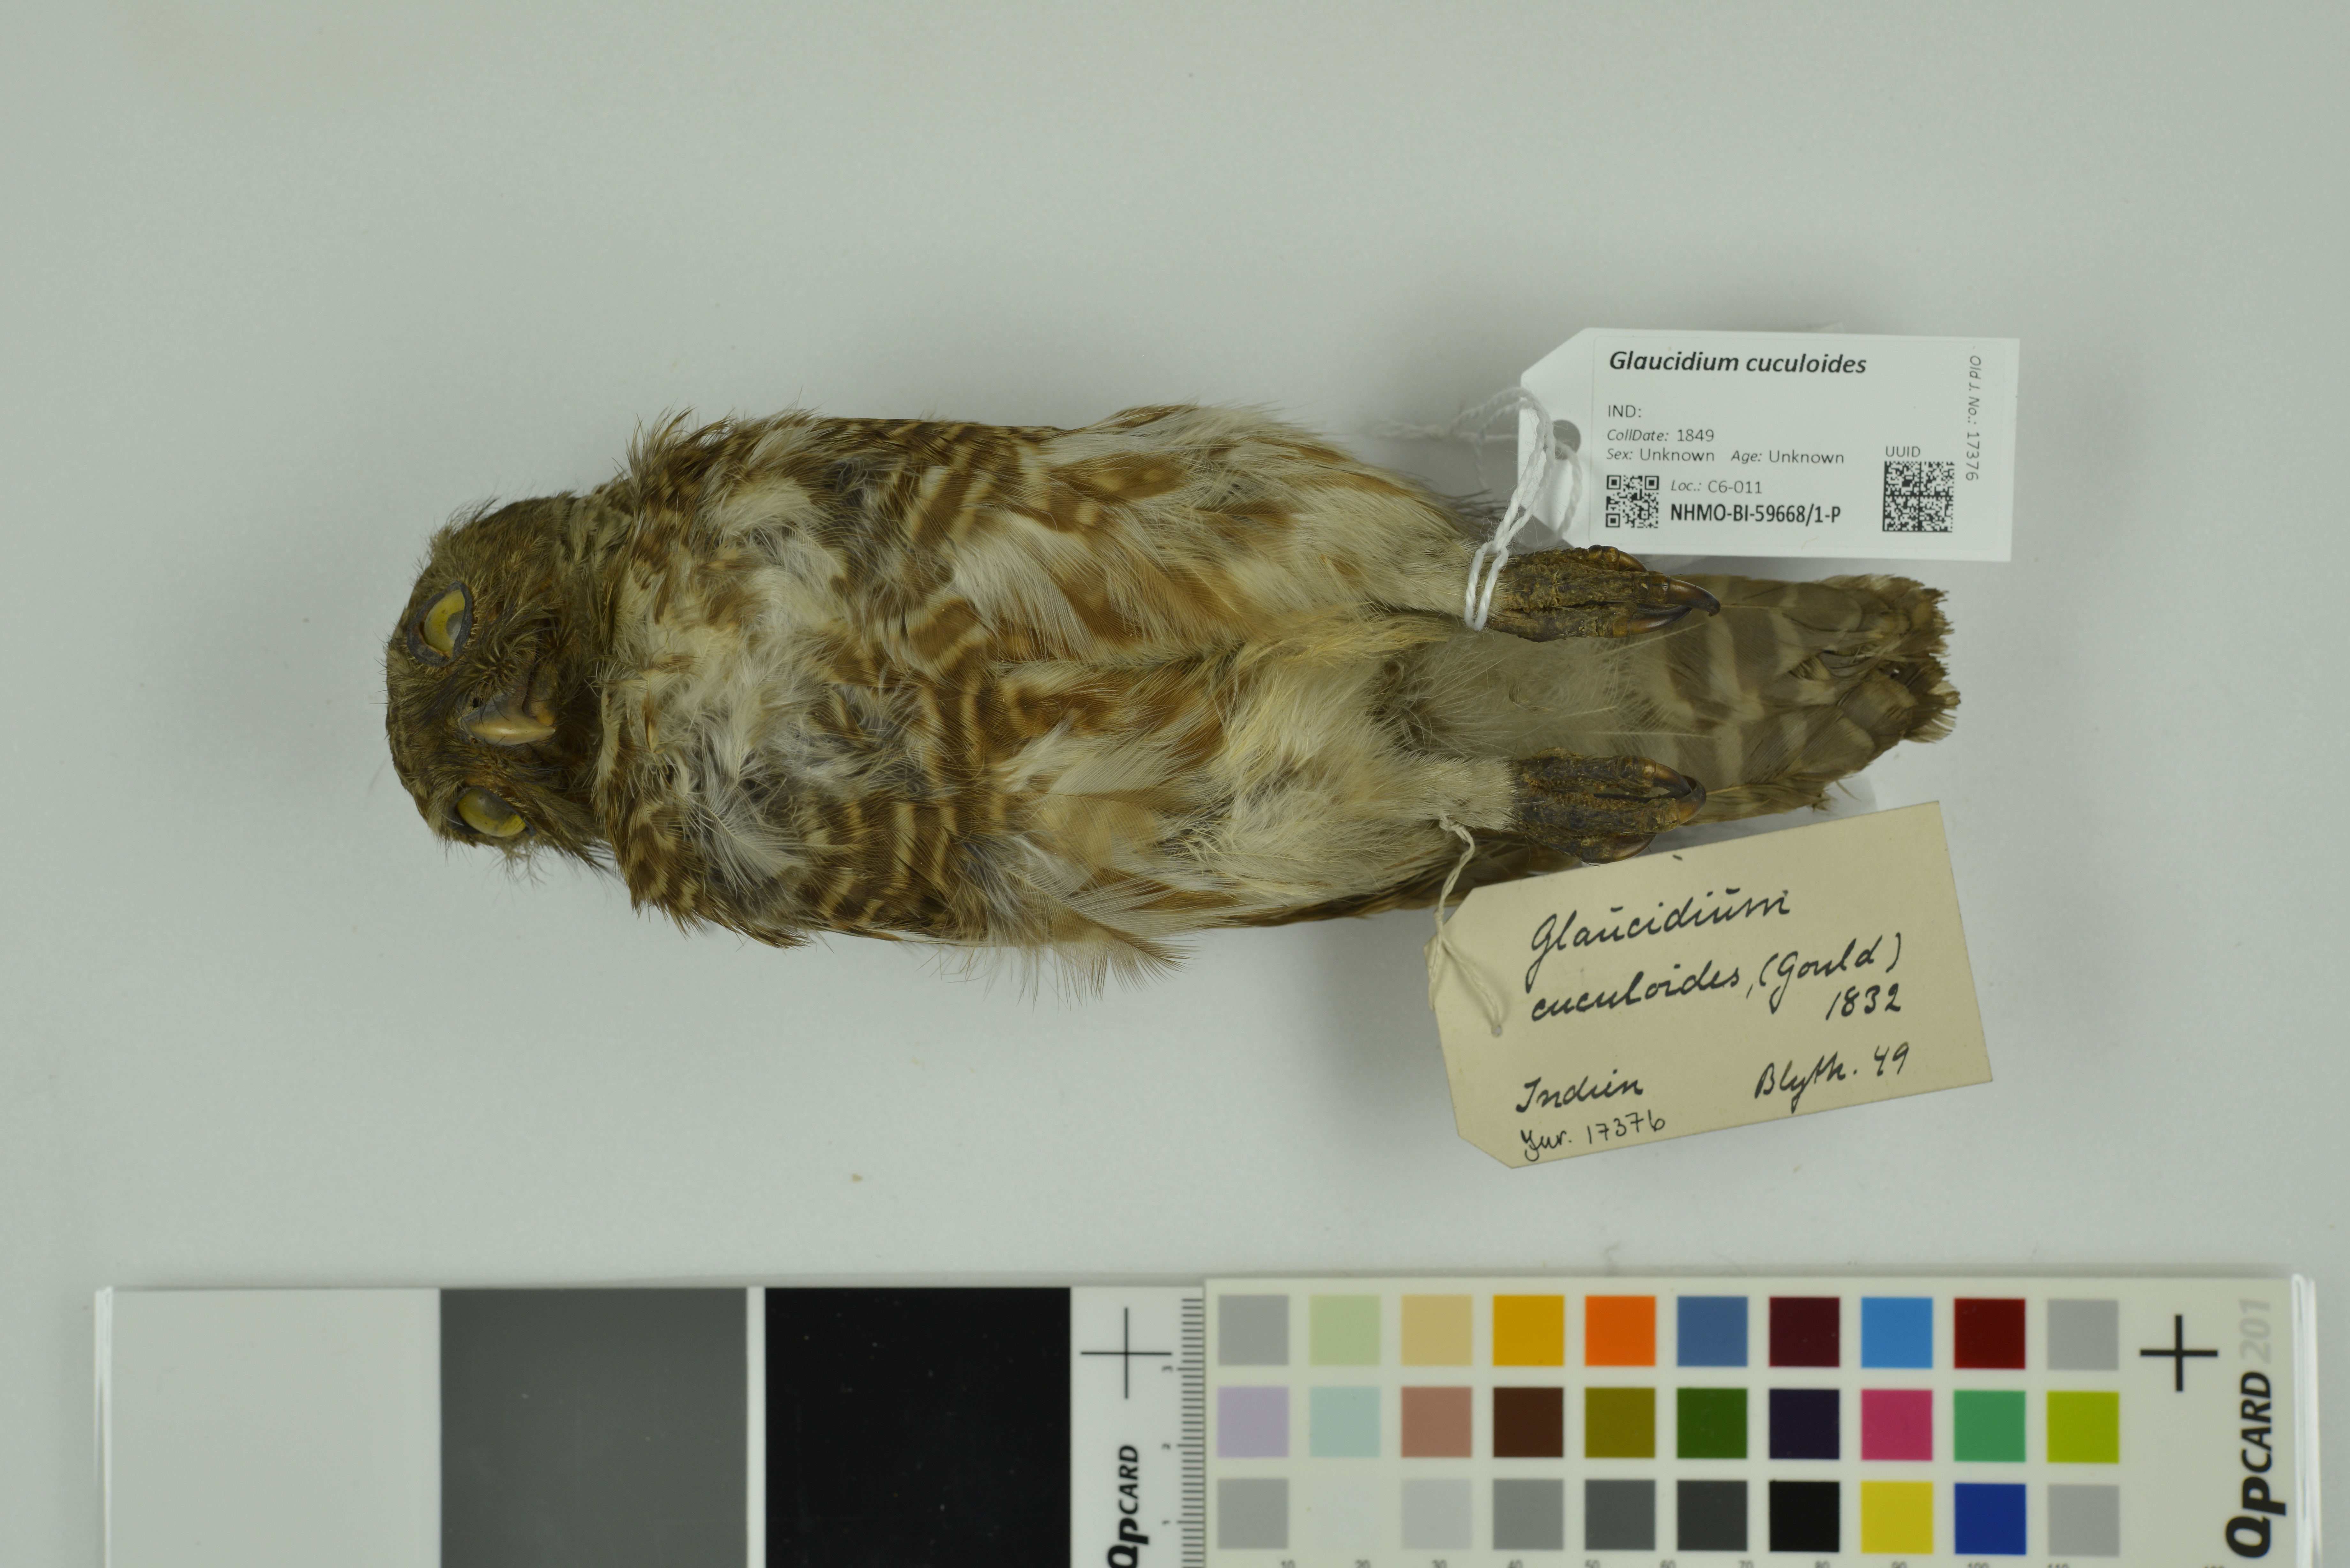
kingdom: Animalia
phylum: Chordata
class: Aves
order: Strigiformes
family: Strigidae
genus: Glaucidium
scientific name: Glaucidium cuculoides
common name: Asian barred owlet
